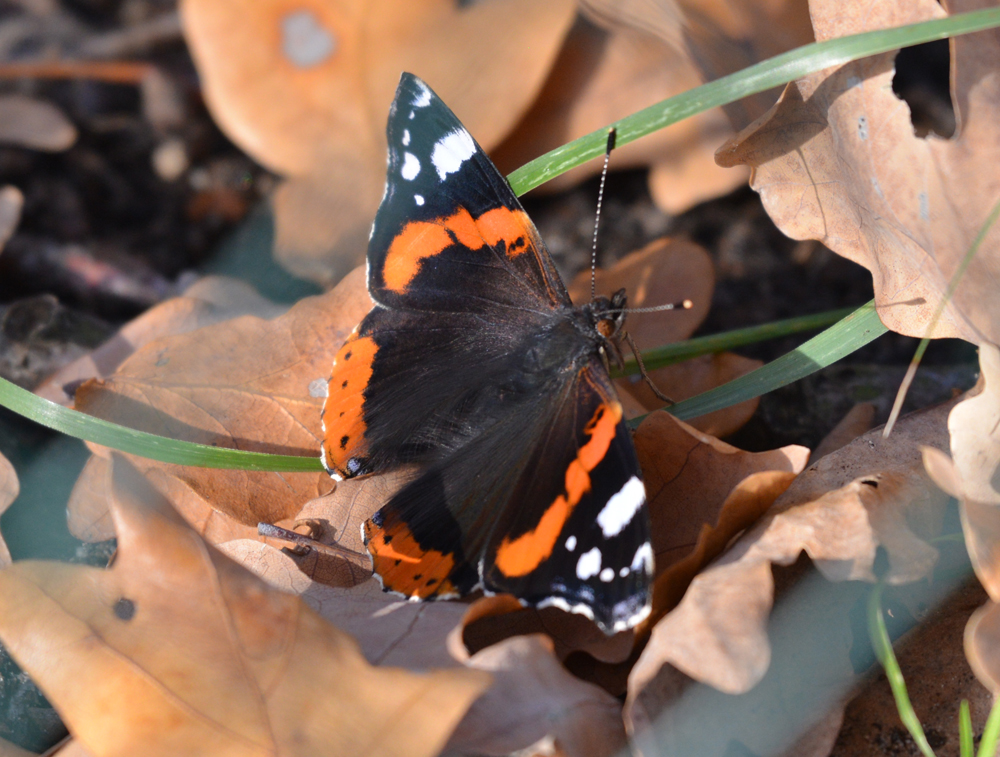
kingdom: Animalia
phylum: Arthropoda
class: Insecta
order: Lepidoptera
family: Nymphalidae
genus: Vanessa
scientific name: Vanessa atalanta
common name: Red admiral
